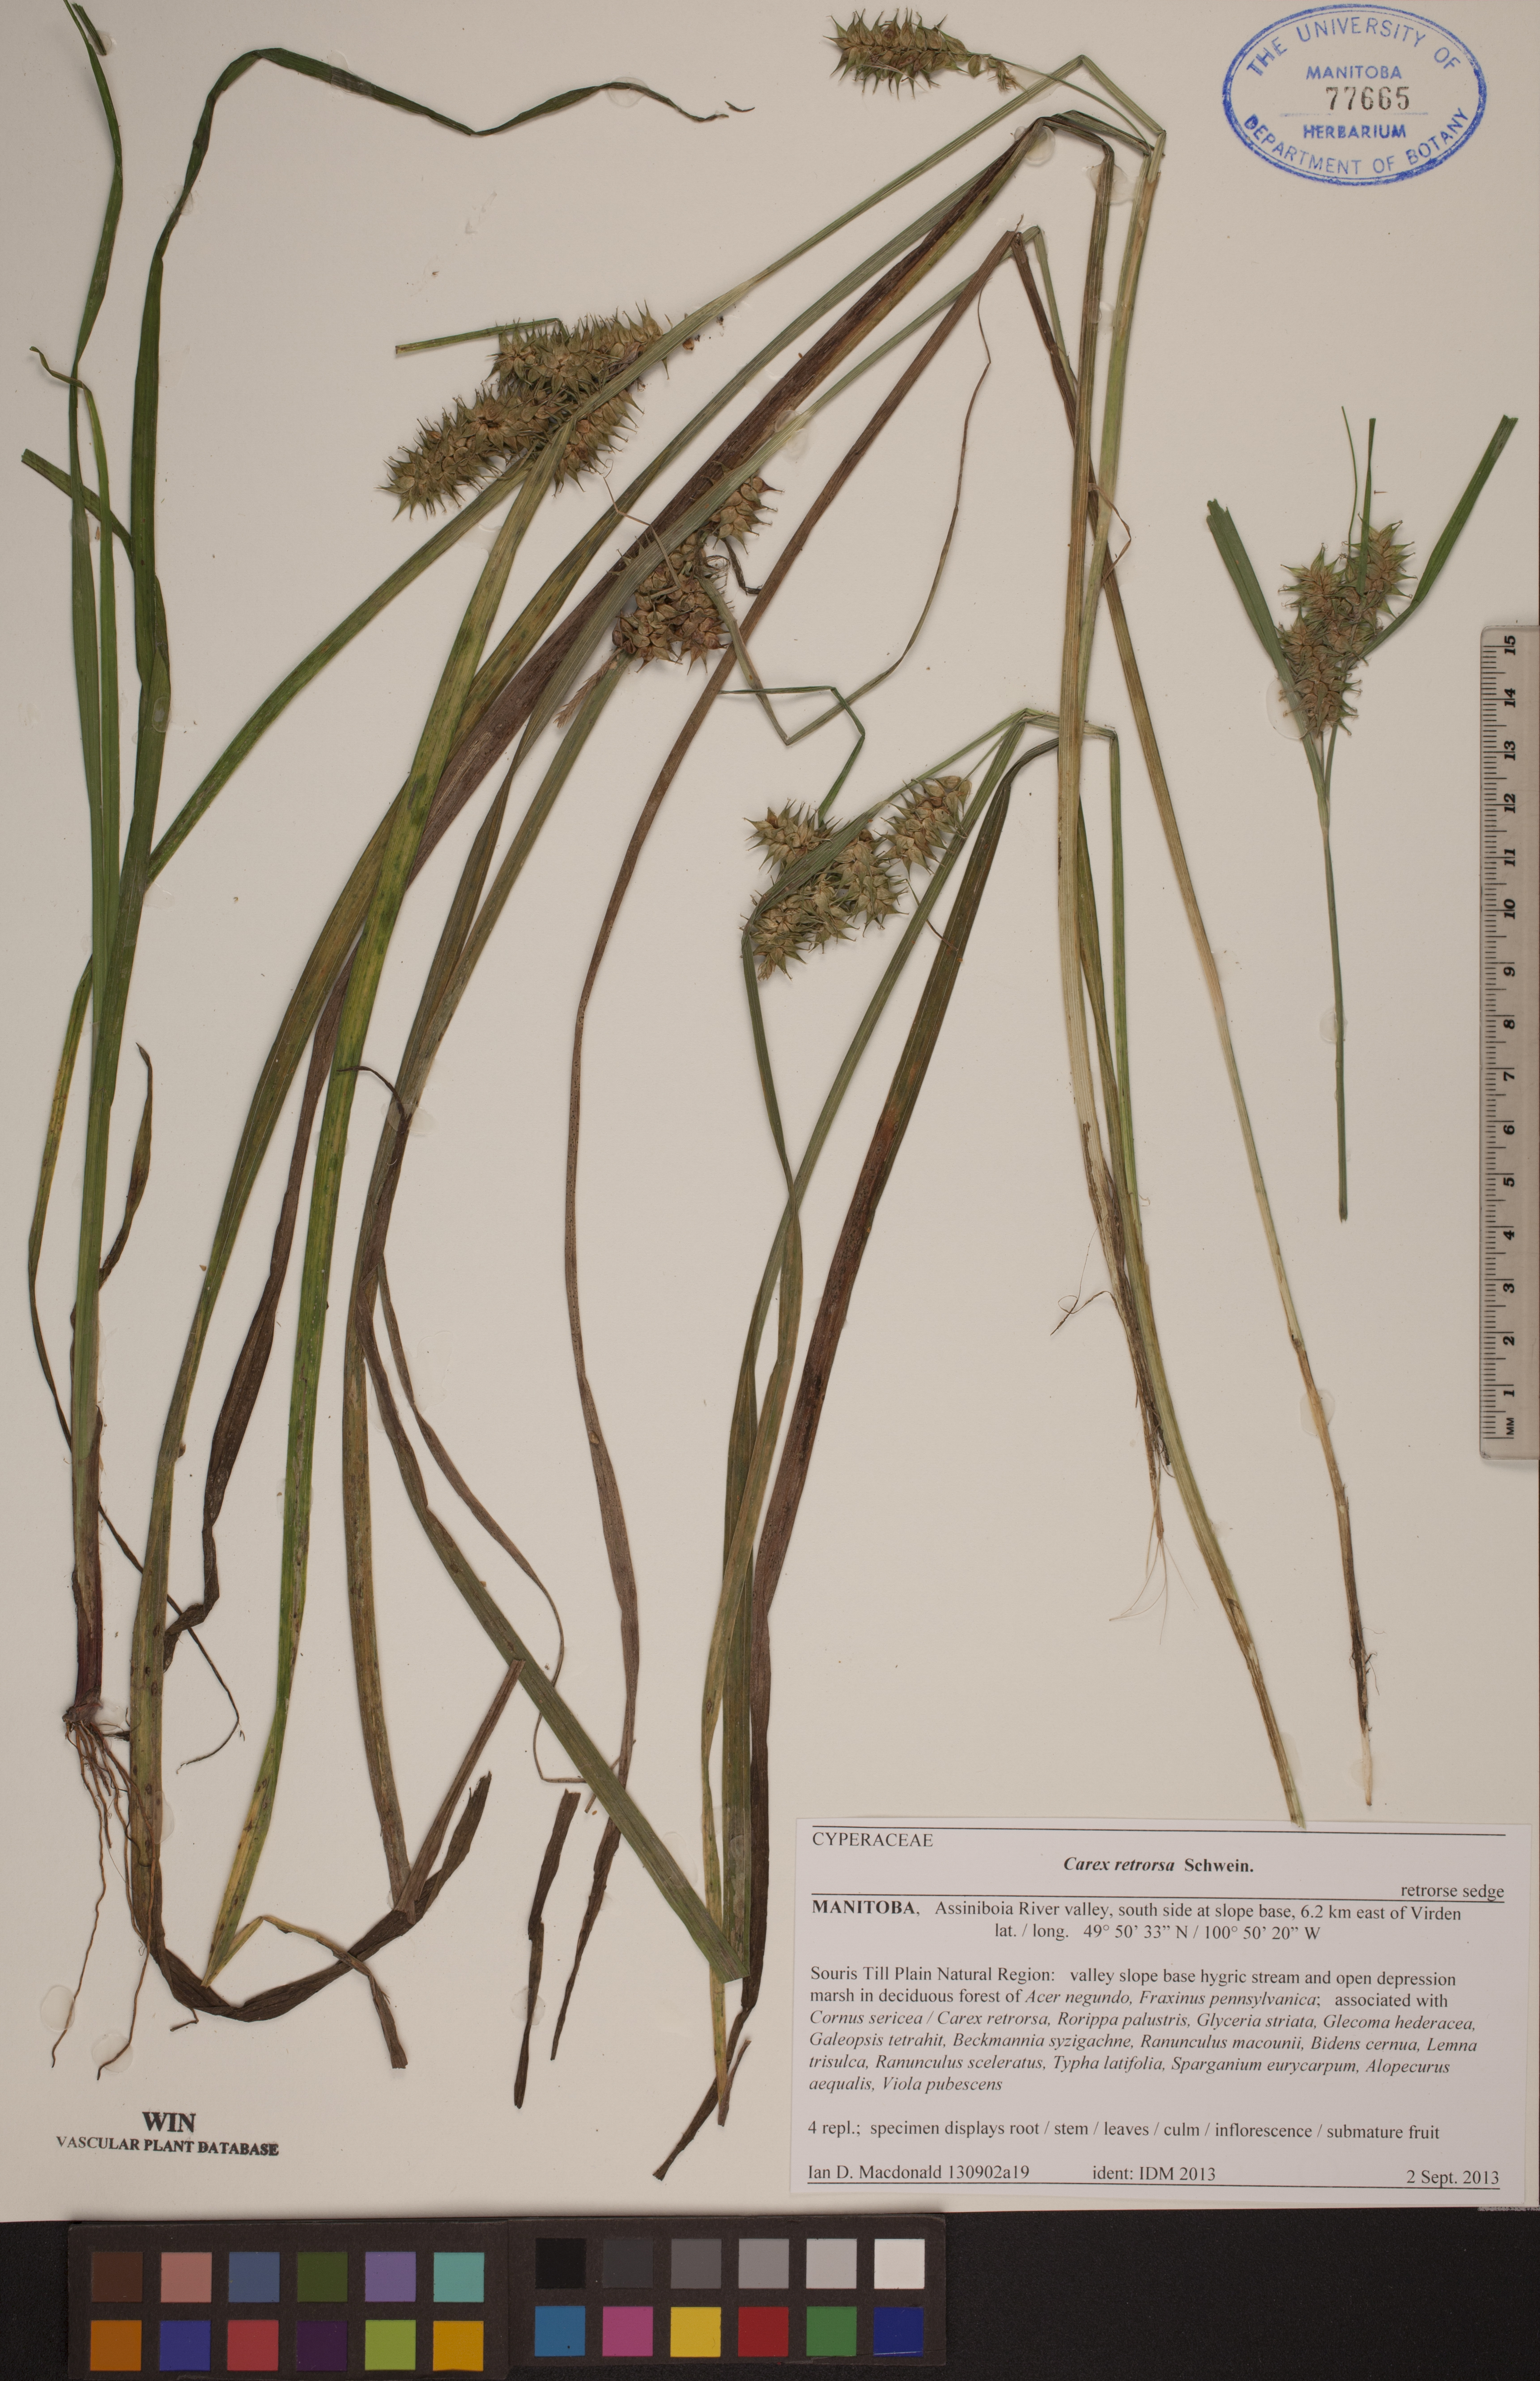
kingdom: Plantae
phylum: Tracheophyta
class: Liliopsida
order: Poales
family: Cyperaceae
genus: Carex
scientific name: Carex retrorsa
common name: Knot-sheath sedge
